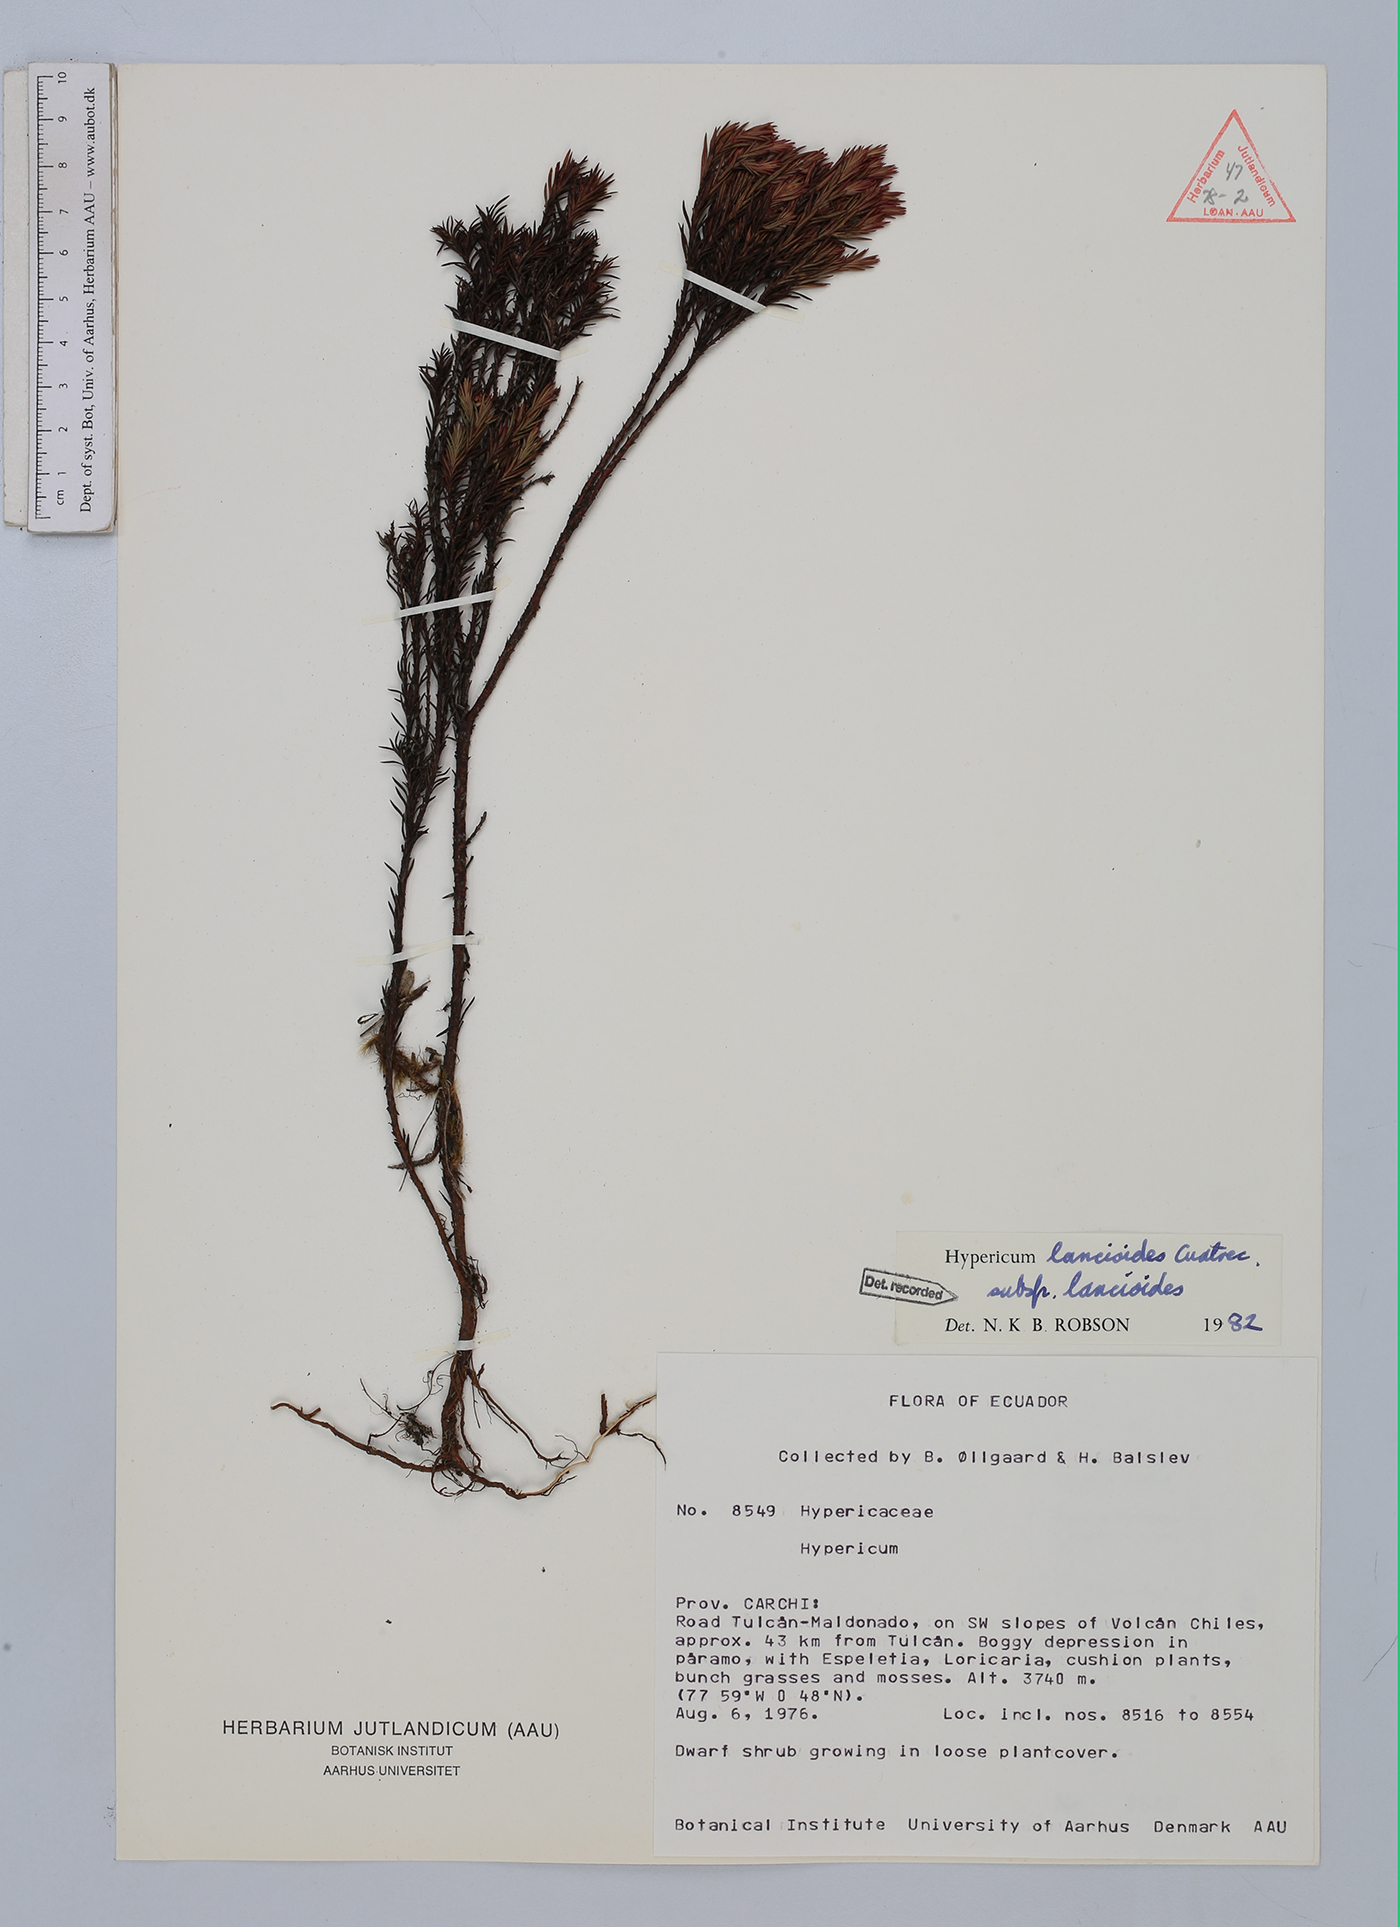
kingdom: Plantae
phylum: Tracheophyta
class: Magnoliopsida
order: Malpighiales
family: Hypericaceae
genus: Hypericum
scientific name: Hypericum lancioides
